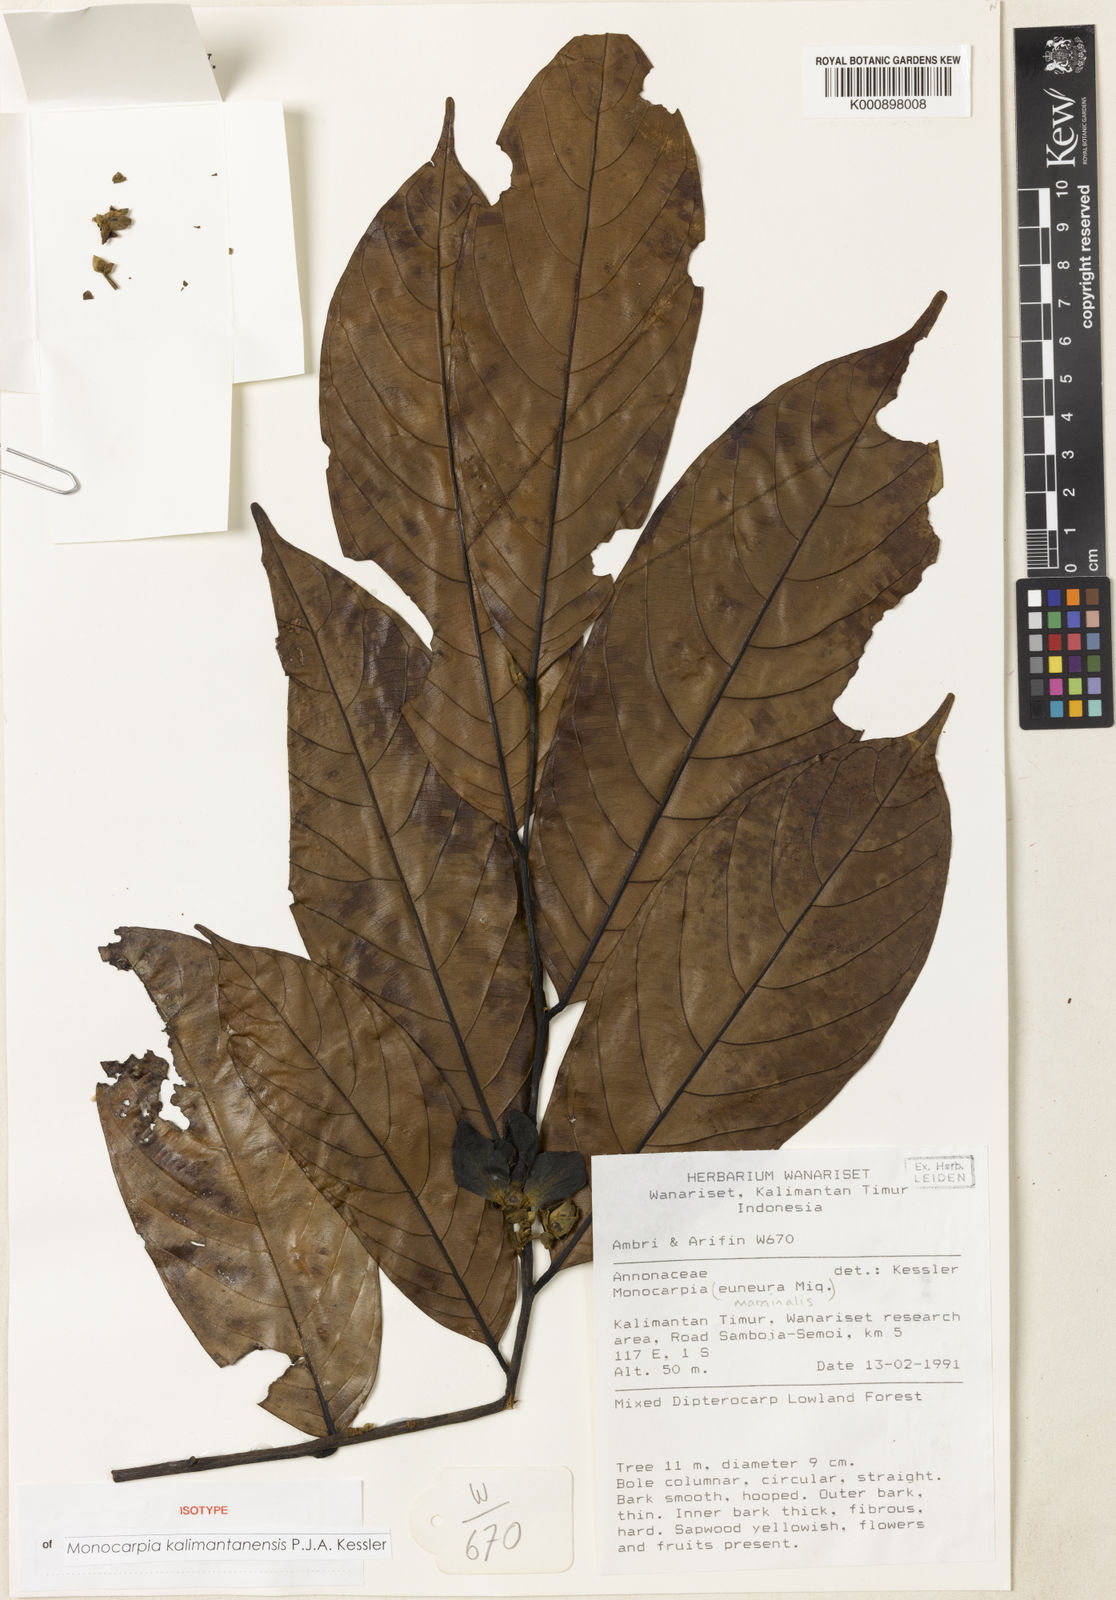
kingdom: Plantae
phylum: Tracheophyta
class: Magnoliopsida
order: Magnoliales
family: Annonaceae
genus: Monocarpia
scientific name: Monocarpia kalimantanensis
